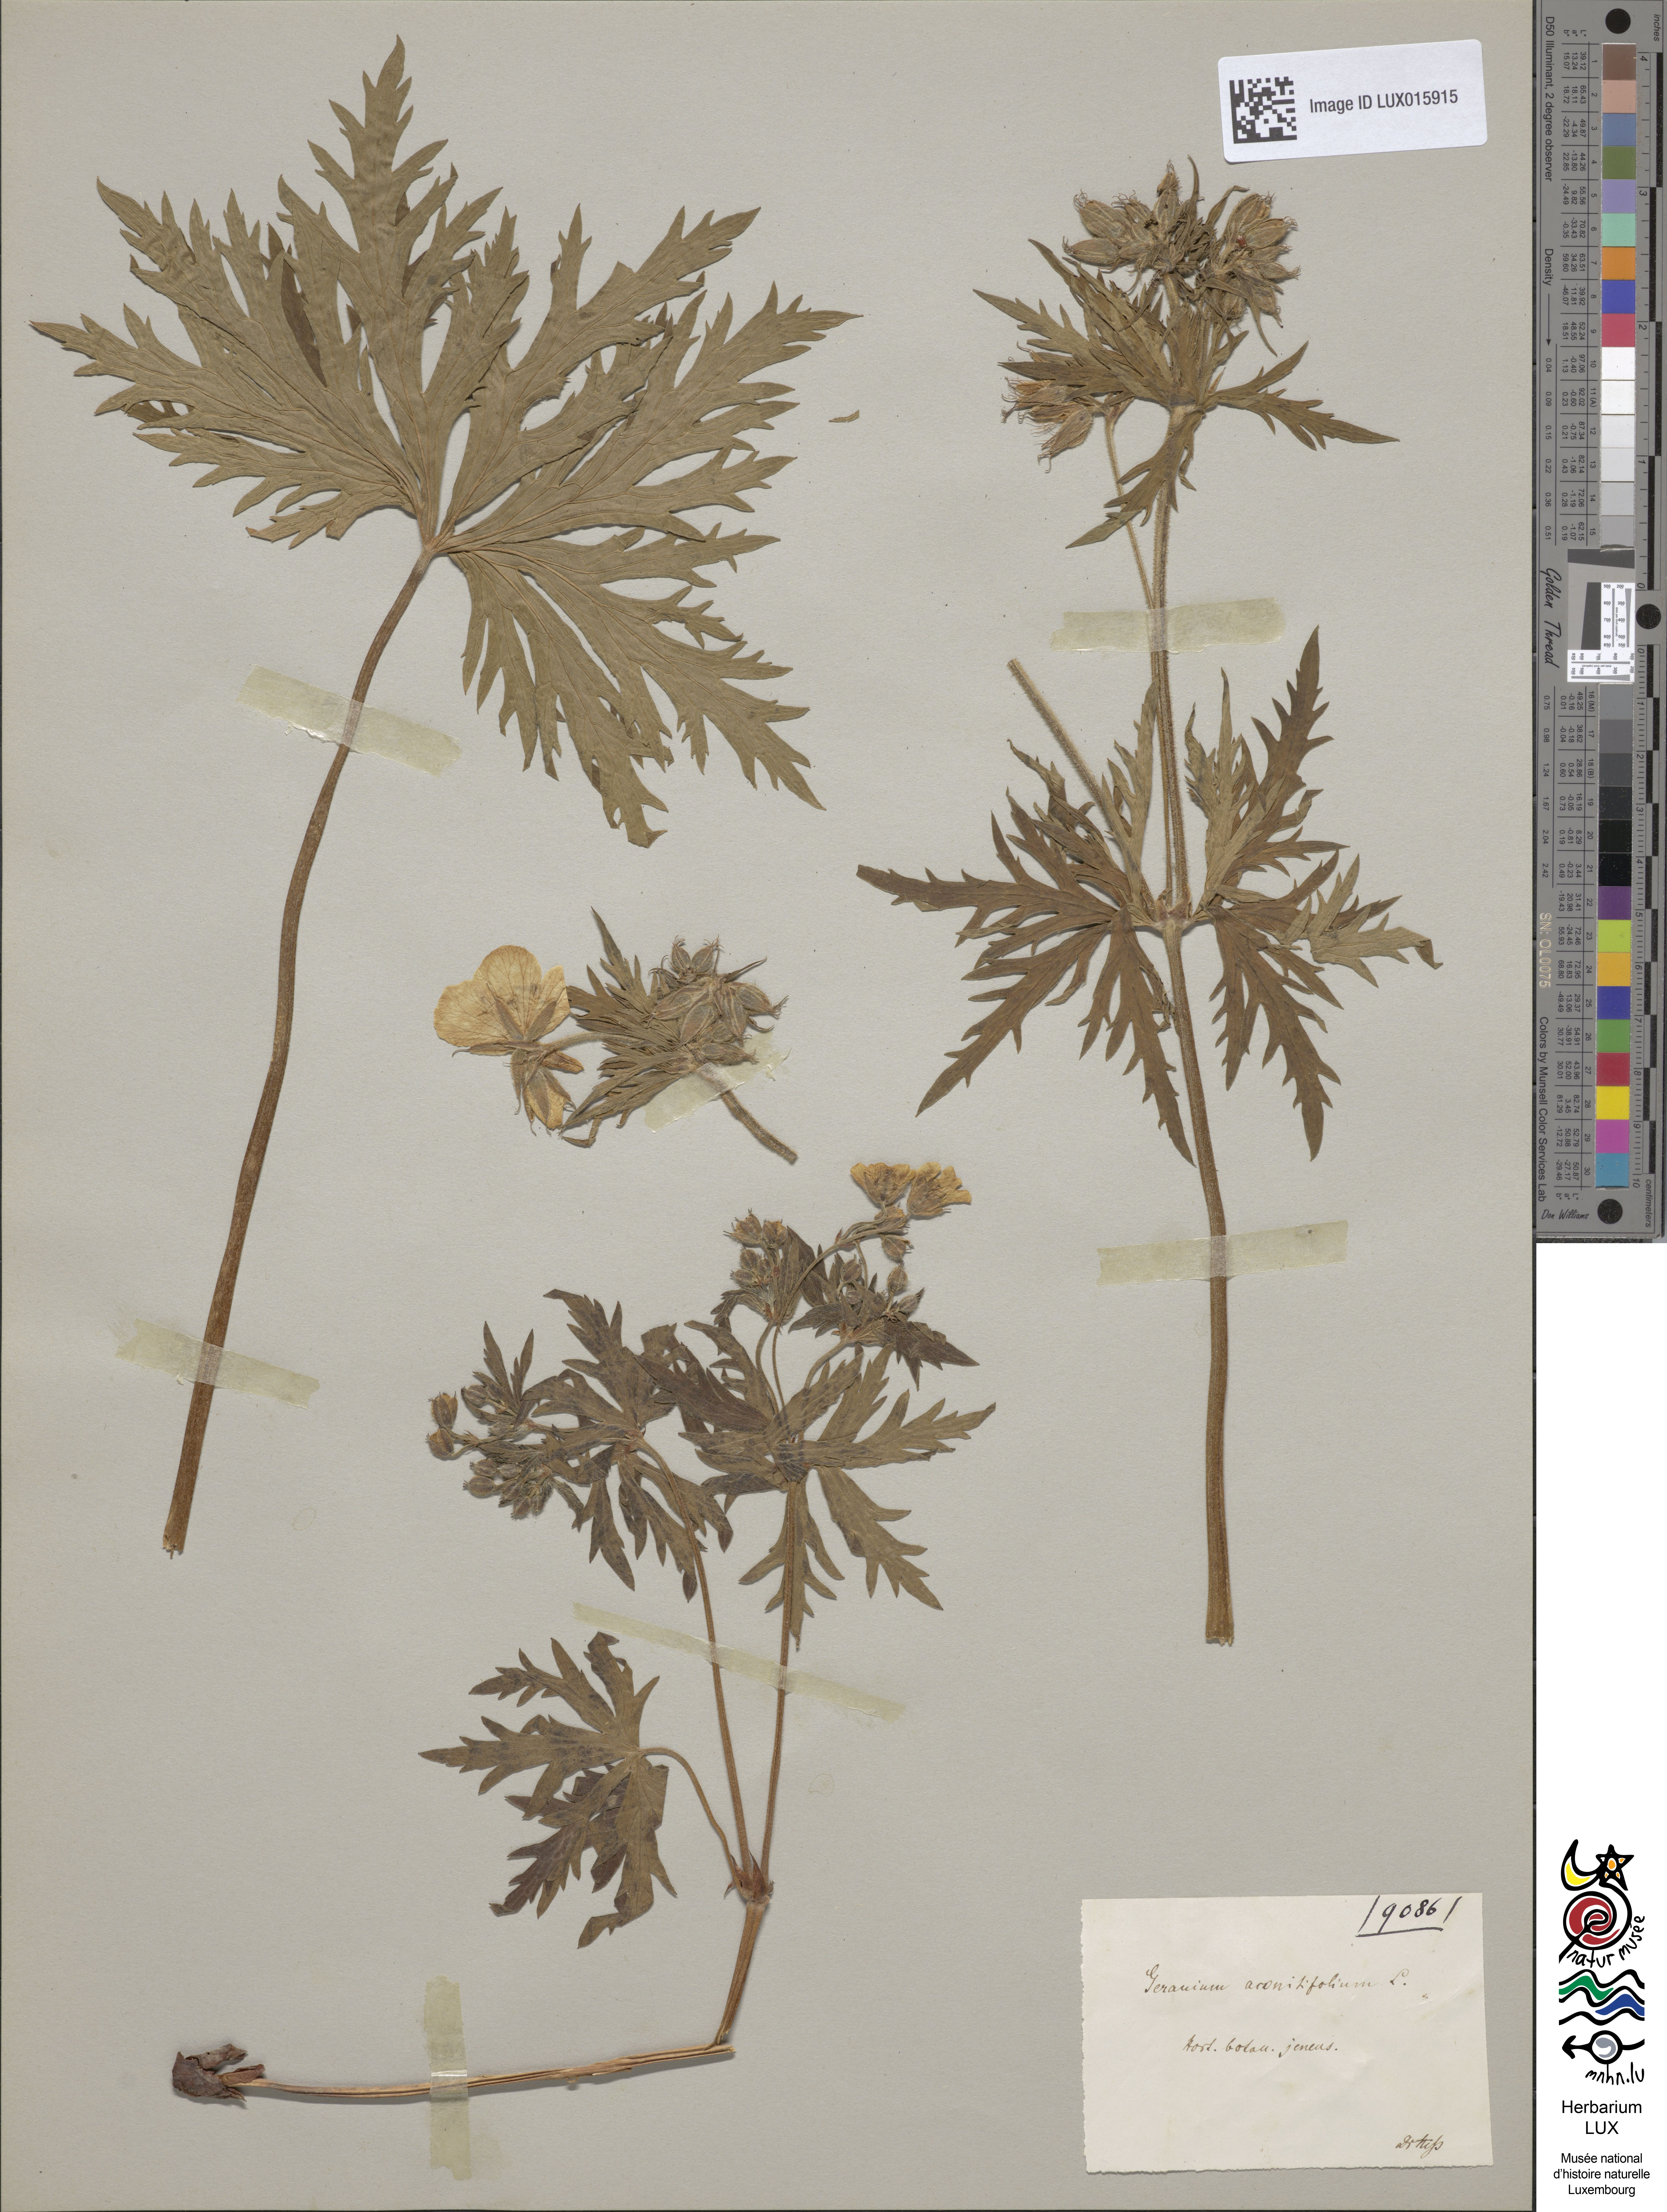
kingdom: Plantae
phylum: Tracheophyta
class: Magnoliopsida
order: Geraniales
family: Geraniaceae
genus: Geranium
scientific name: Geranium rivulare
